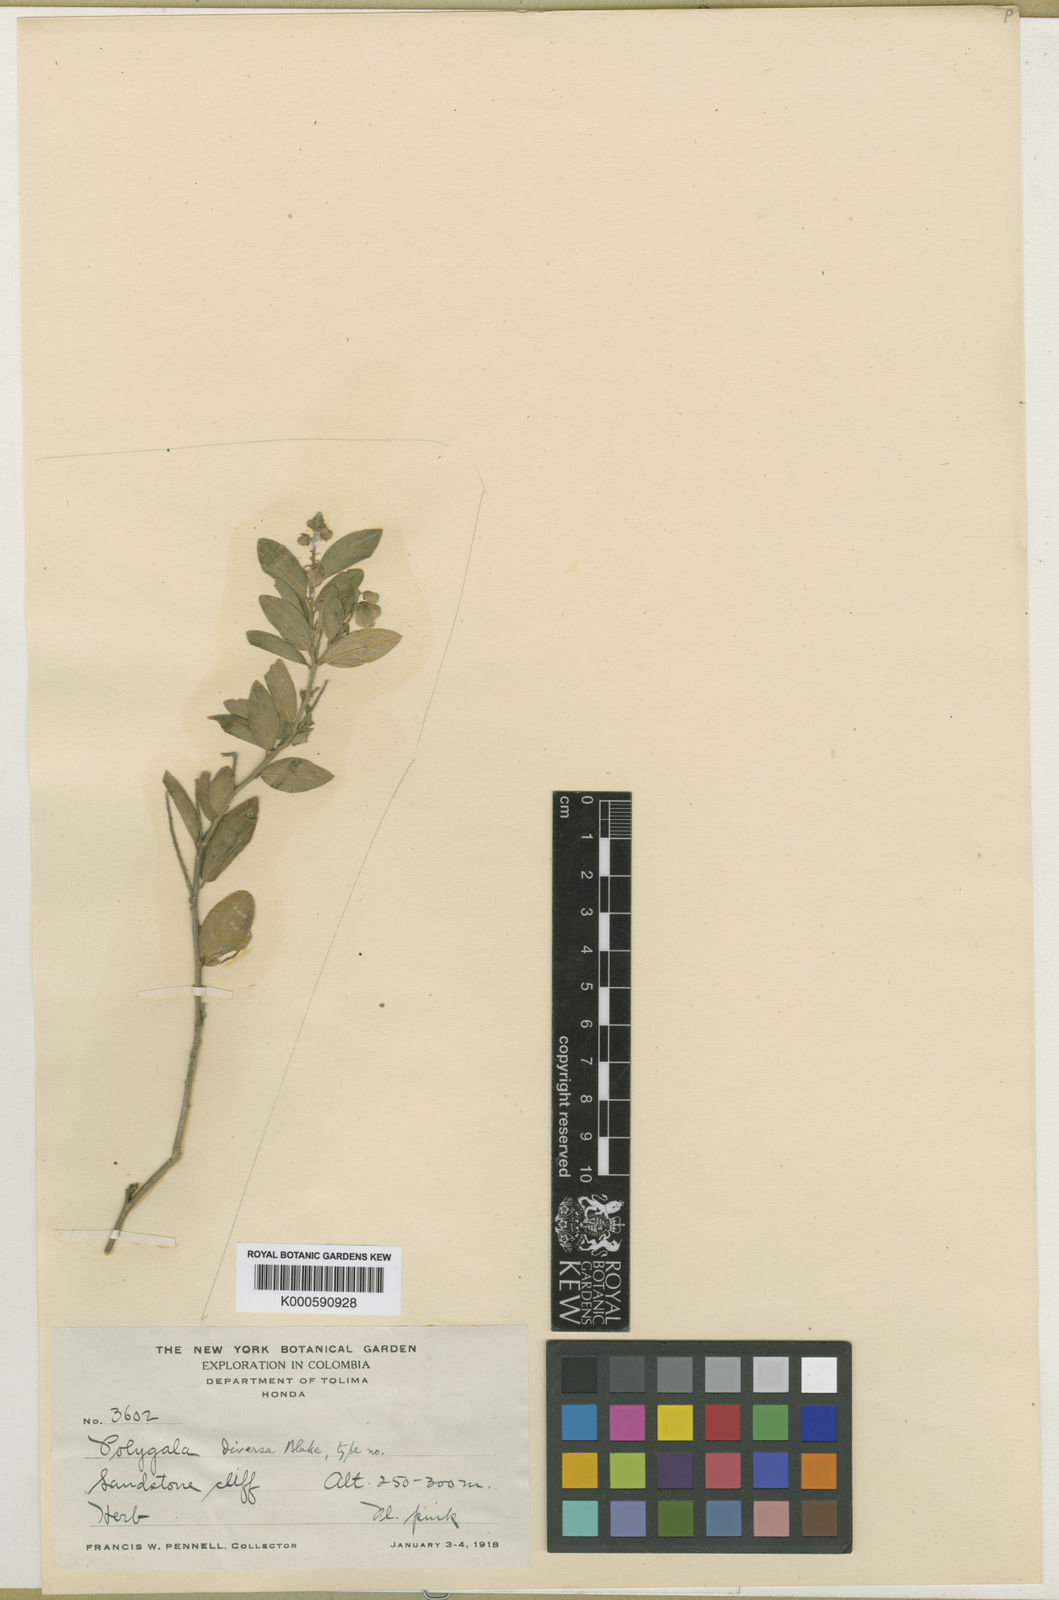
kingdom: Plantae
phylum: Tracheophyta
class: Magnoliopsida
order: Fabales
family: Polygalaceae
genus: Asemeia
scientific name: Asemeia monninoides
